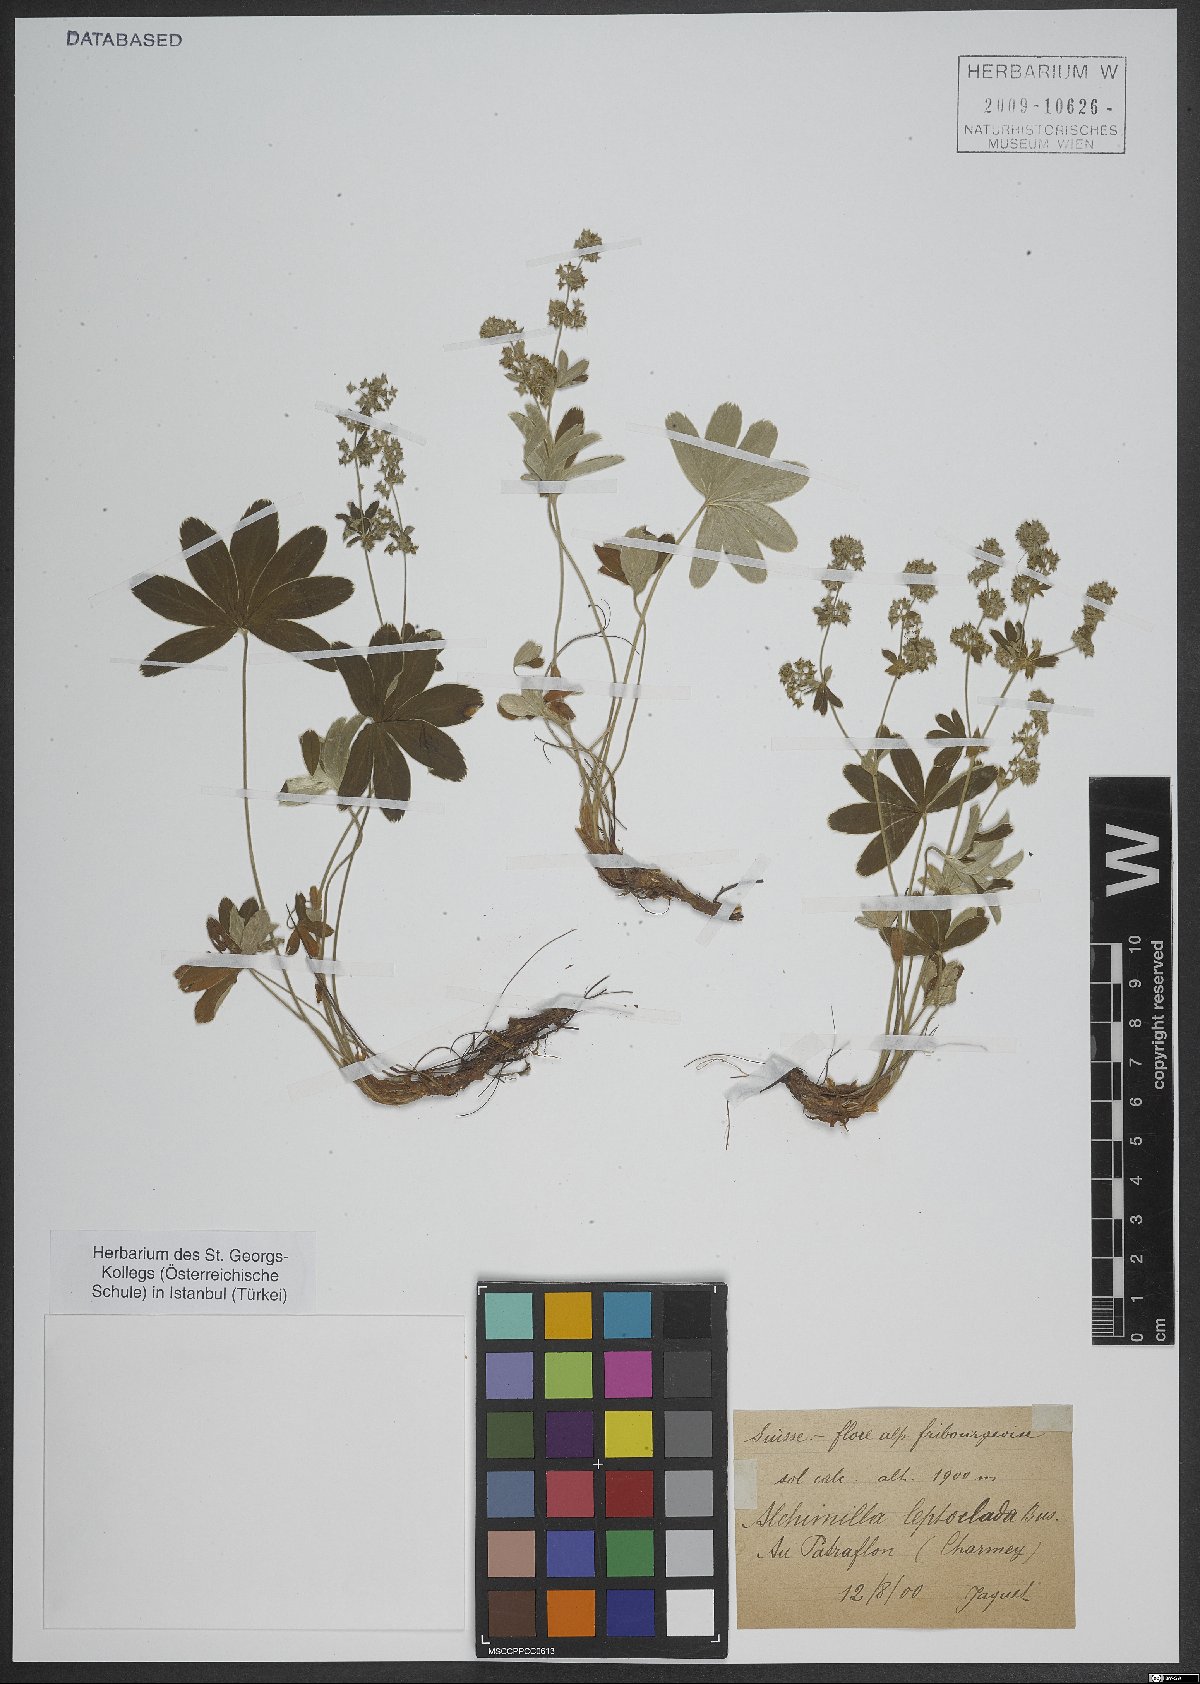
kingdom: Plantae
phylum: Tracheophyta
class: Magnoliopsida
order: Rosales
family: Rosaceae
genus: Alchemilla
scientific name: Alchemilla leptoclada
